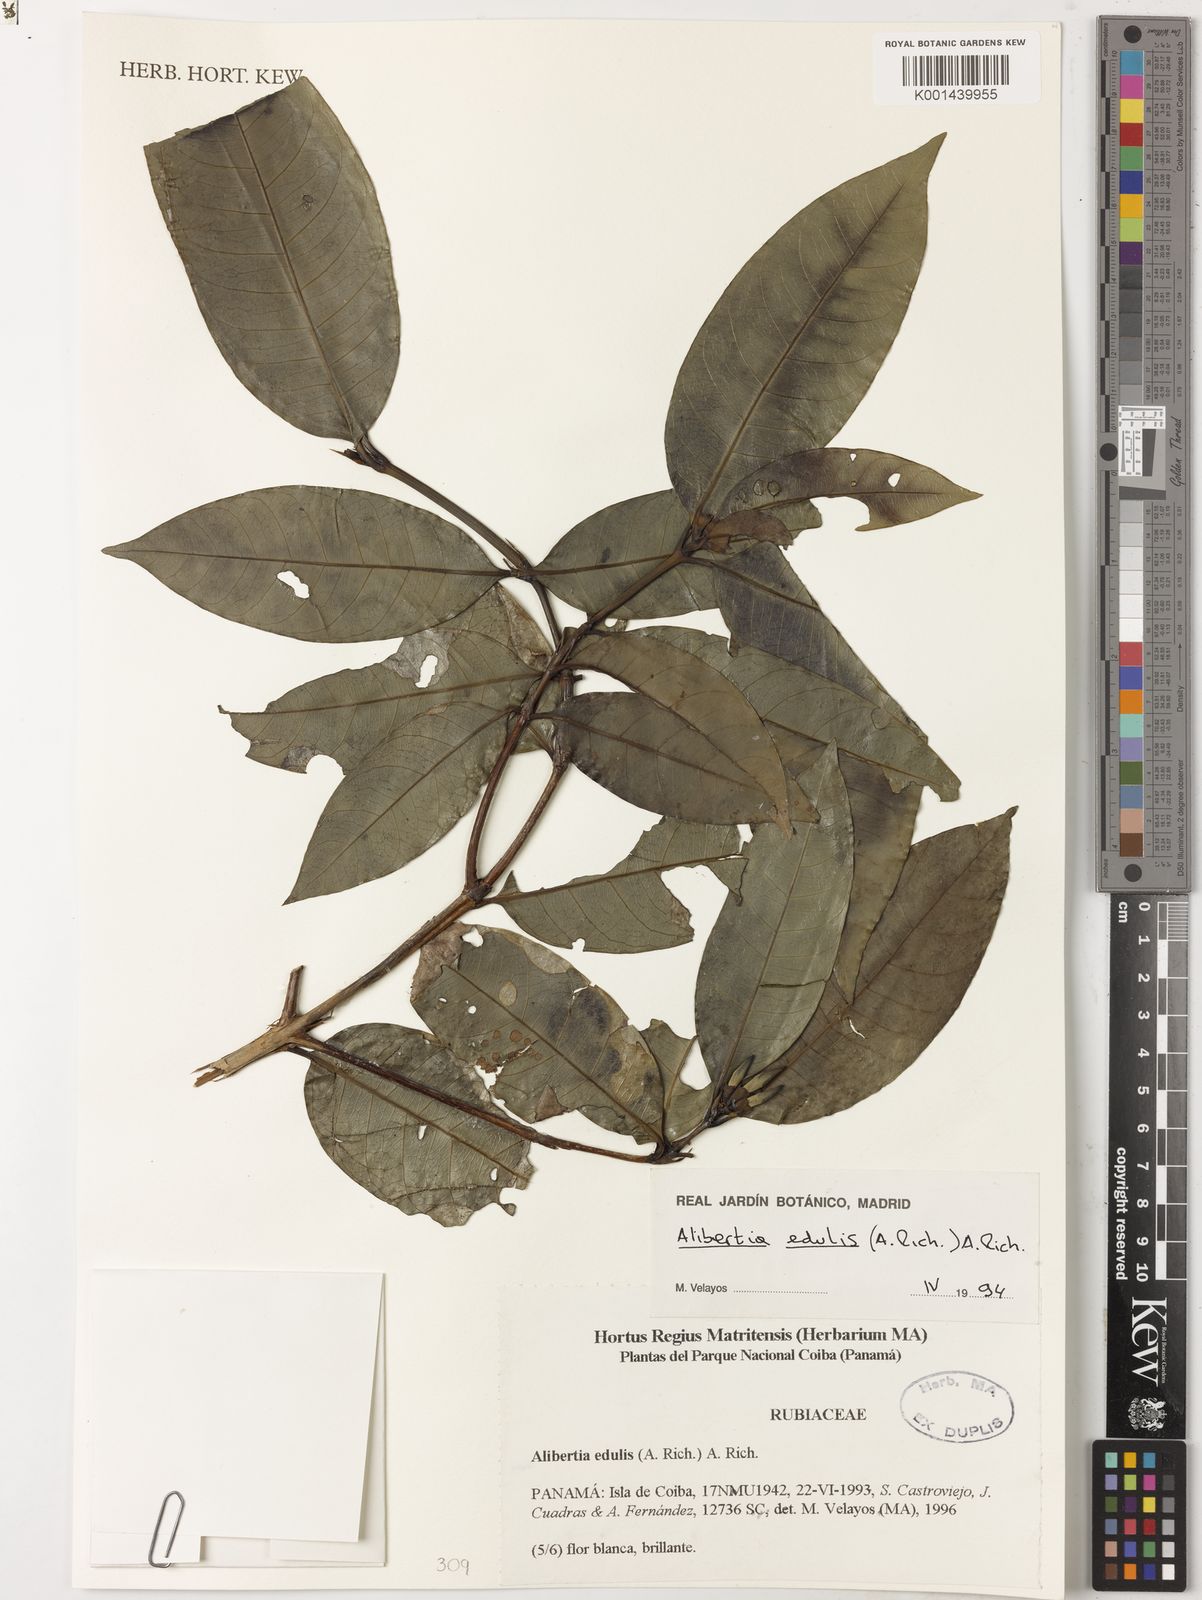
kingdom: Plantae
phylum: Tracheophyta
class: Magnoliopsida
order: Gentianales
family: Rubiaceae
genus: Alibertia
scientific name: Alibertia edulis
